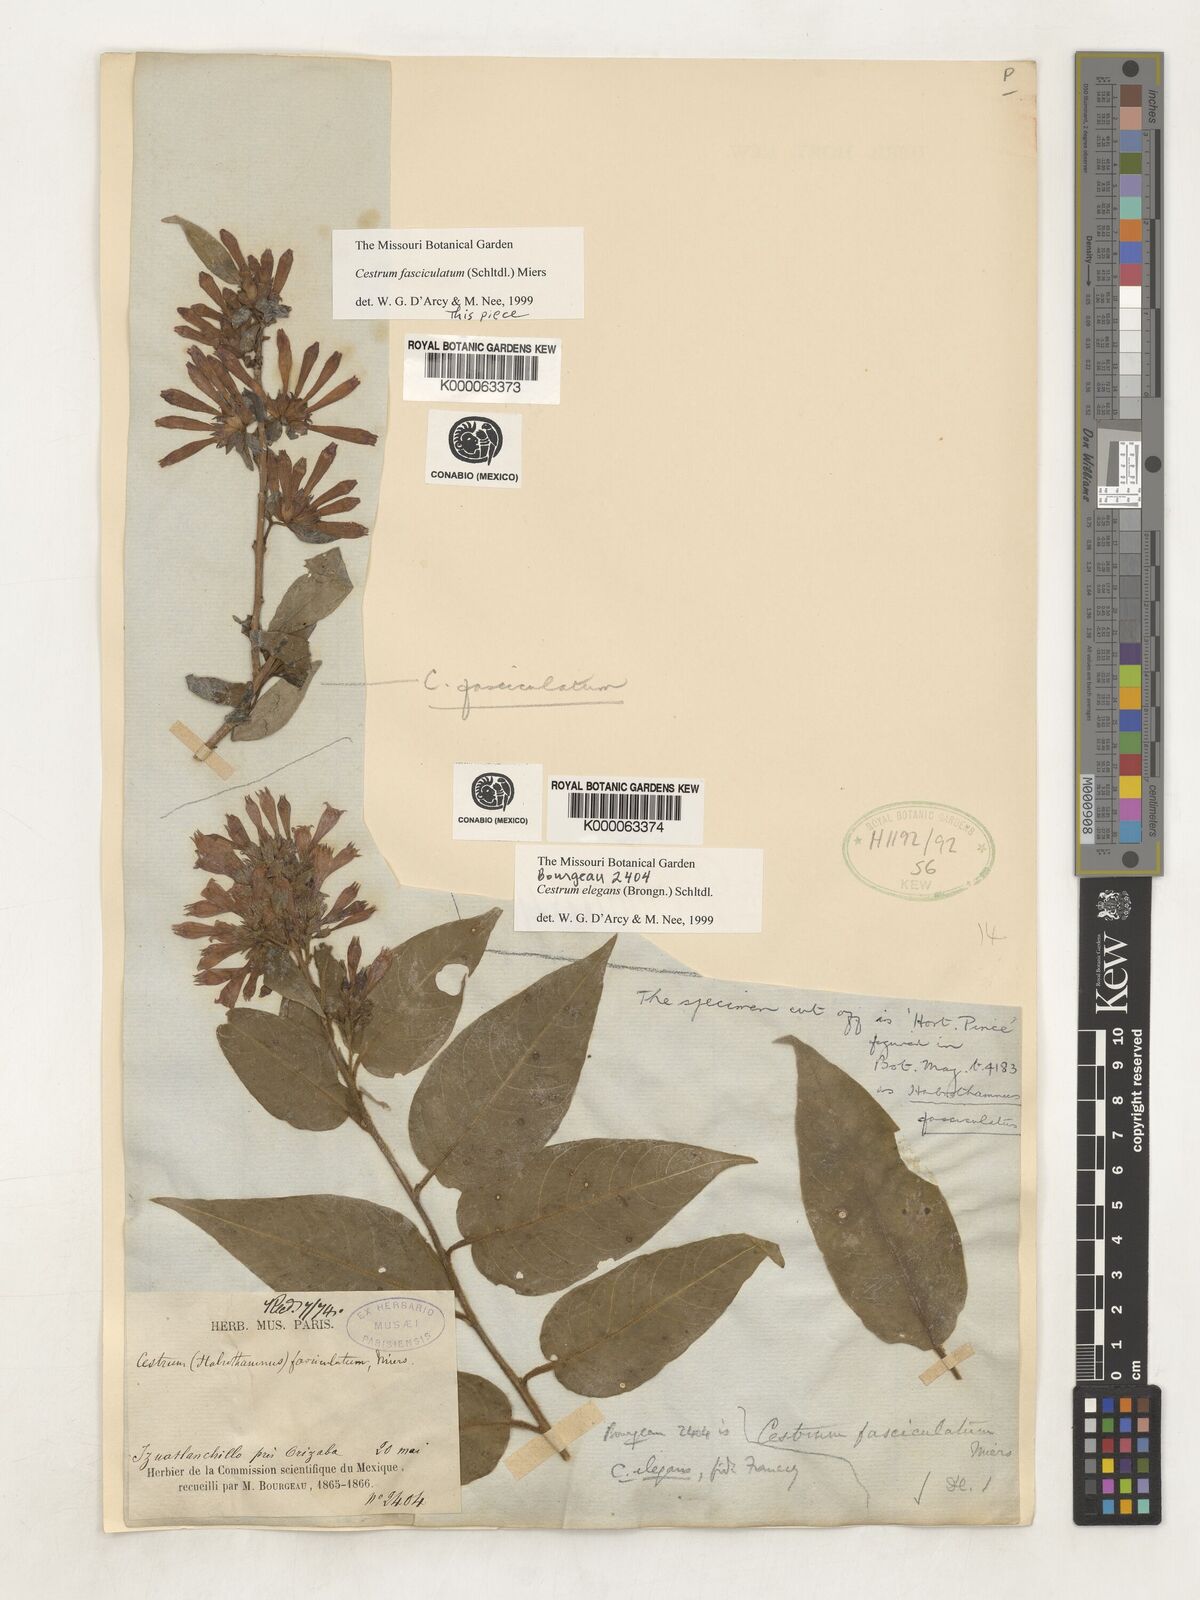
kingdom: Plantae
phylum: Tracheophyta
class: Magnoliopsida
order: Solanales
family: Solanaceae
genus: Cestrum
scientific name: Cestrum fasciculatum
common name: Early jessamine
